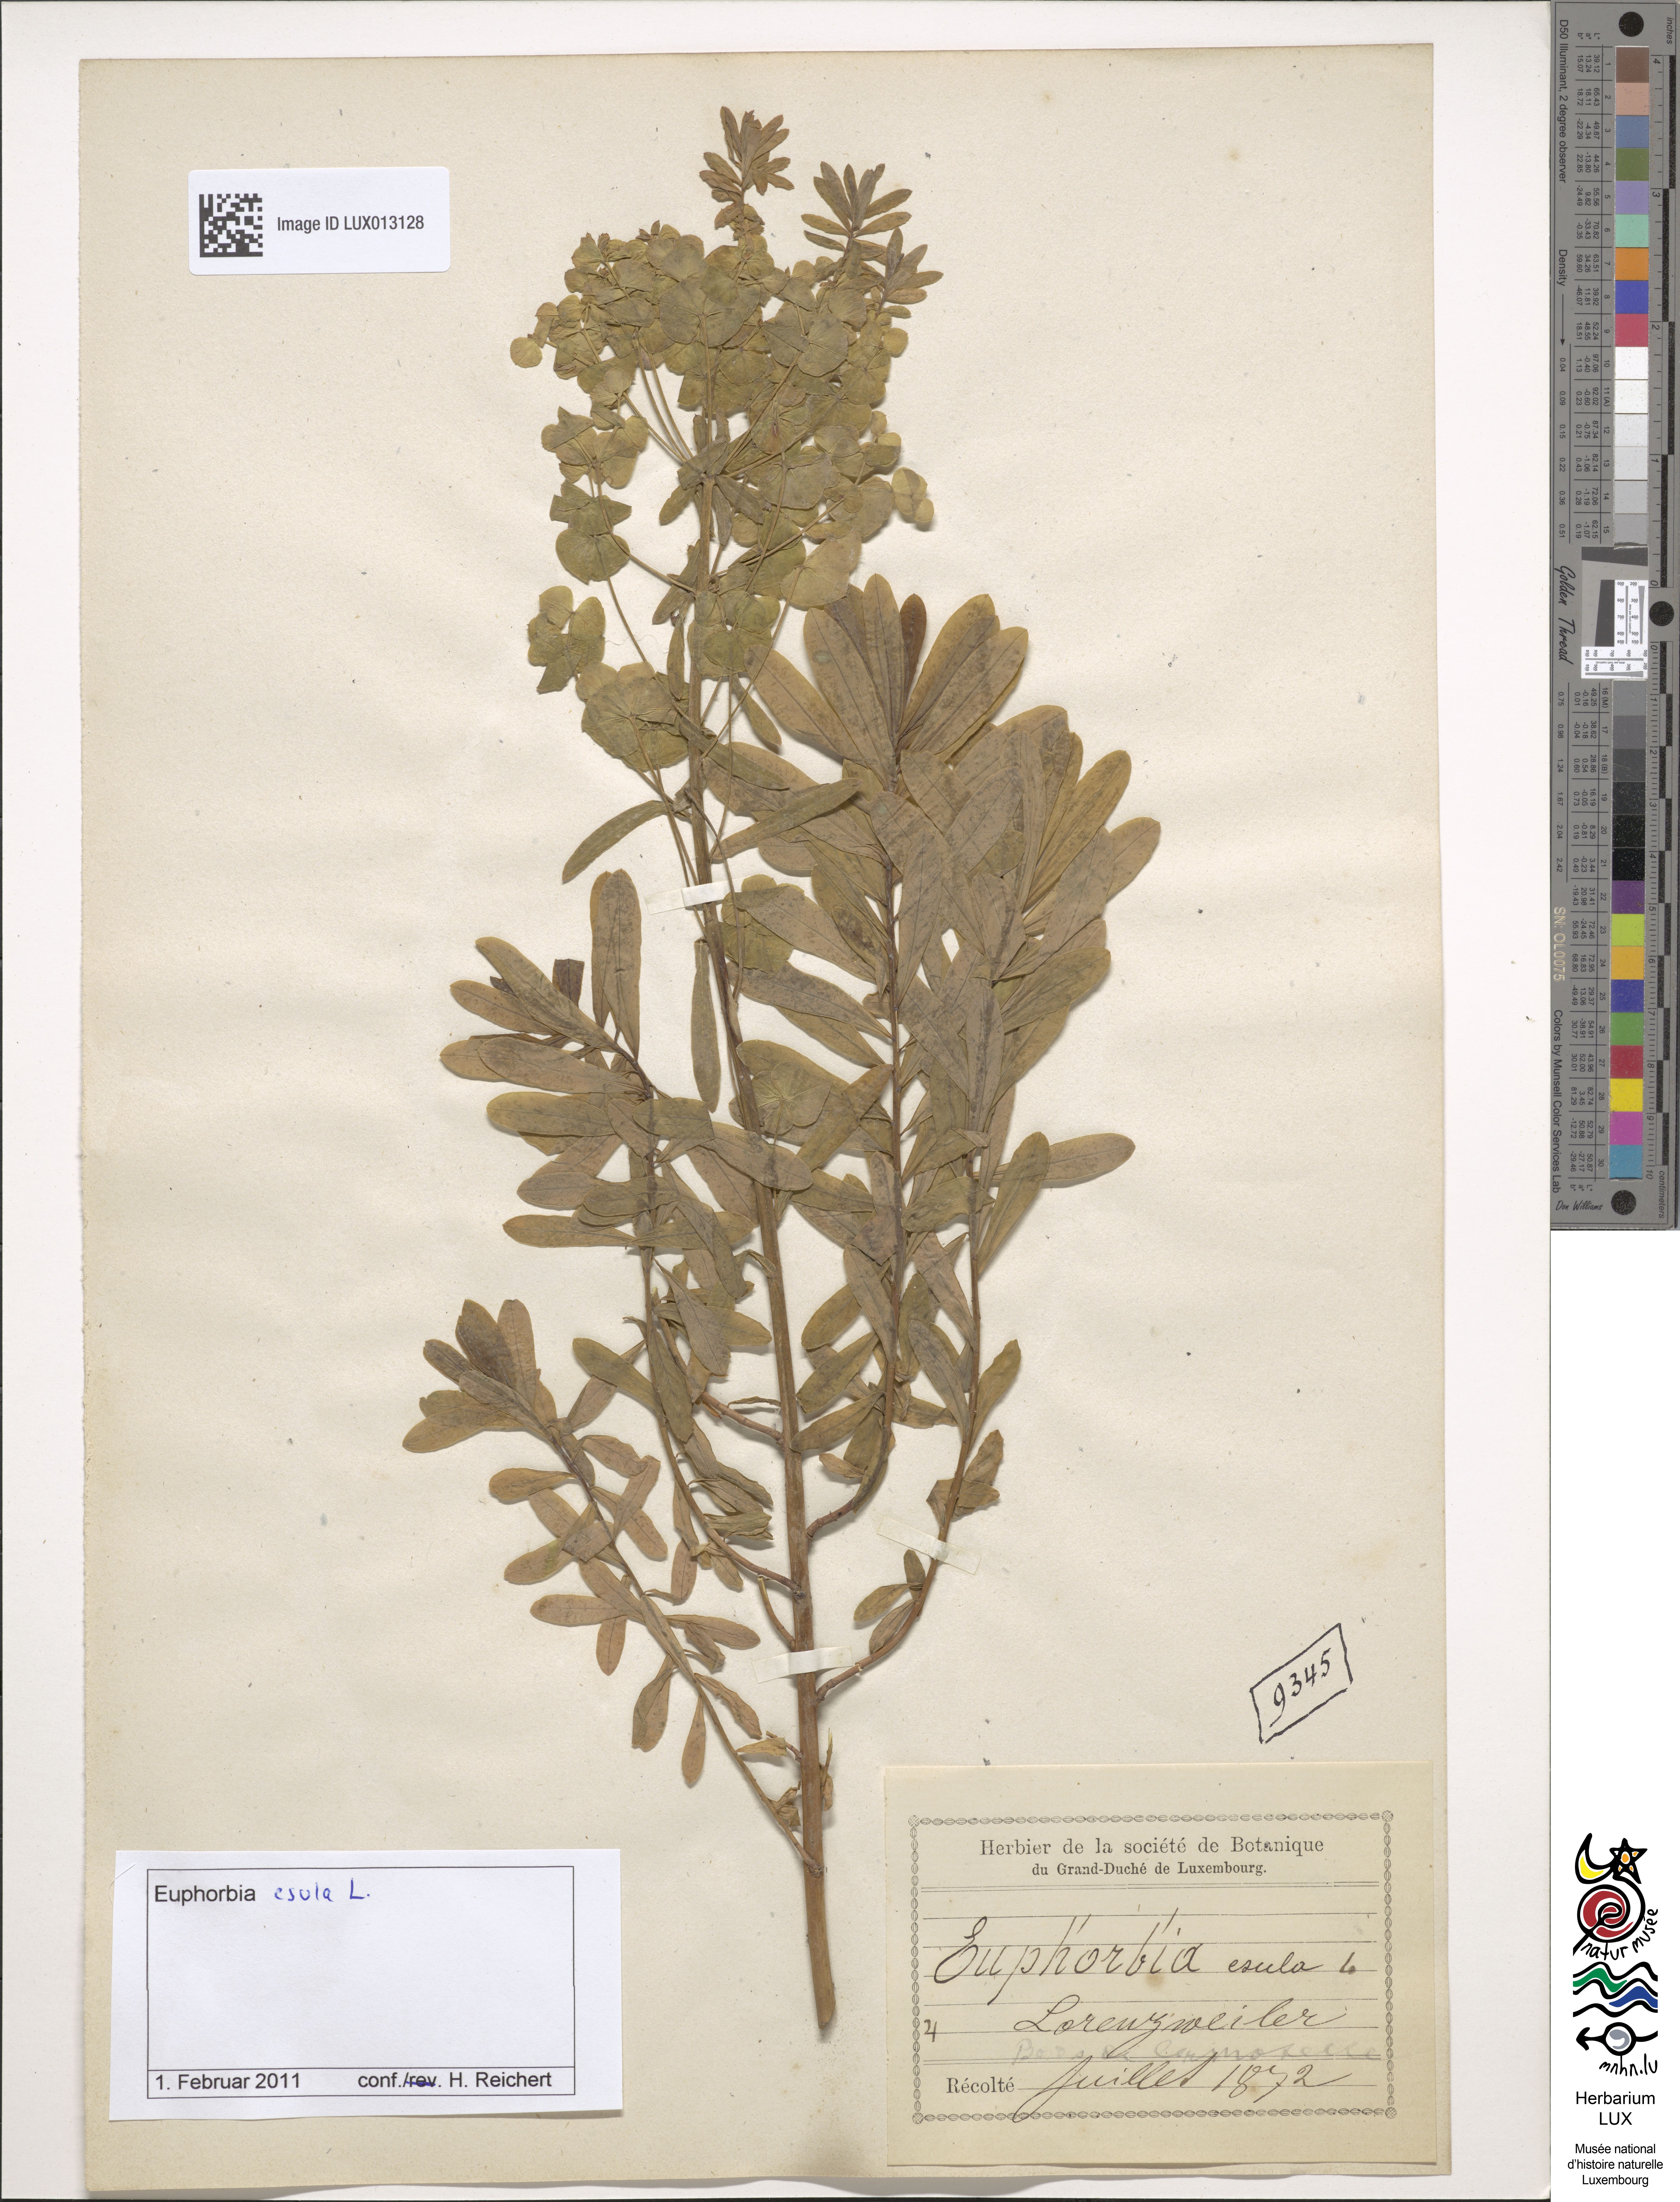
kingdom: Plantae
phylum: Tracheophyta
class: Magnoliopsida
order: Malpighiales
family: Euphorbiaceae
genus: Euphorbia
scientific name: Euphorbia esula
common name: Leafy spurge
